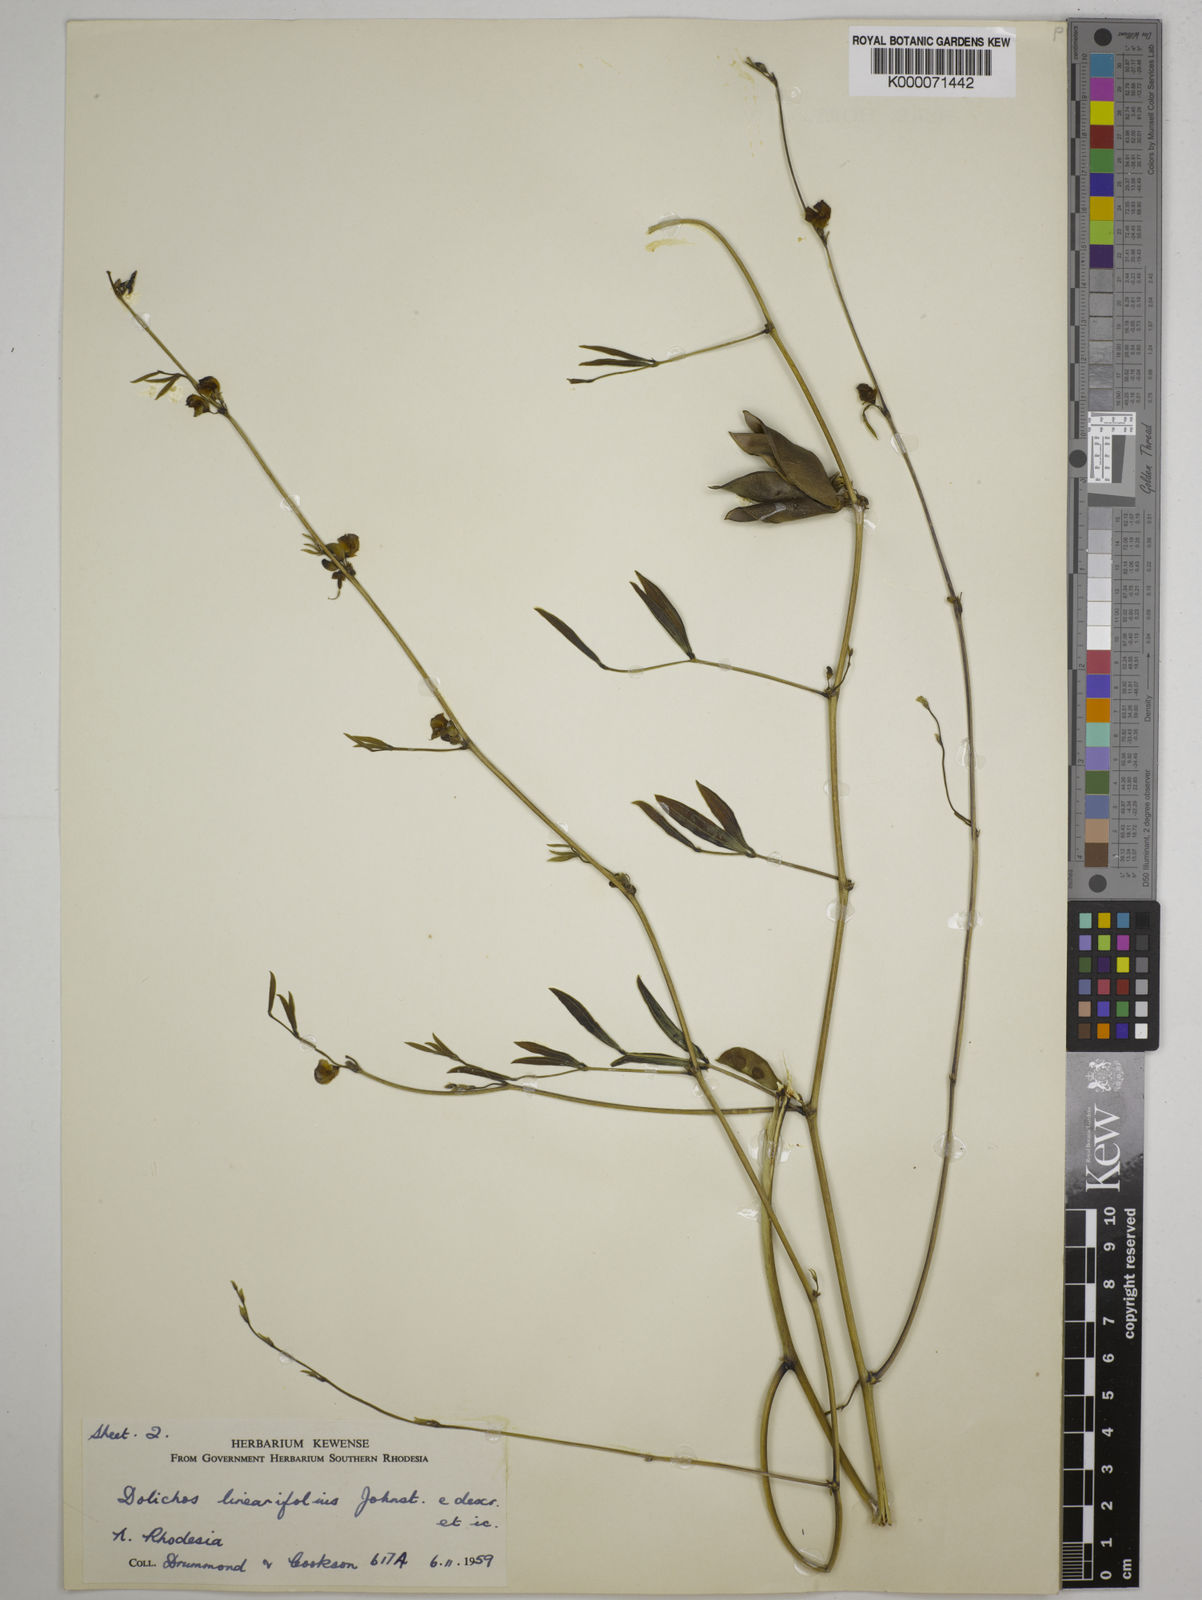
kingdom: Plantae
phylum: Tracheophyta
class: Magnoliopsida
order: Fabales
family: Fabaceae
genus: Dolichos
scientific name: Dolichos linearifolius
